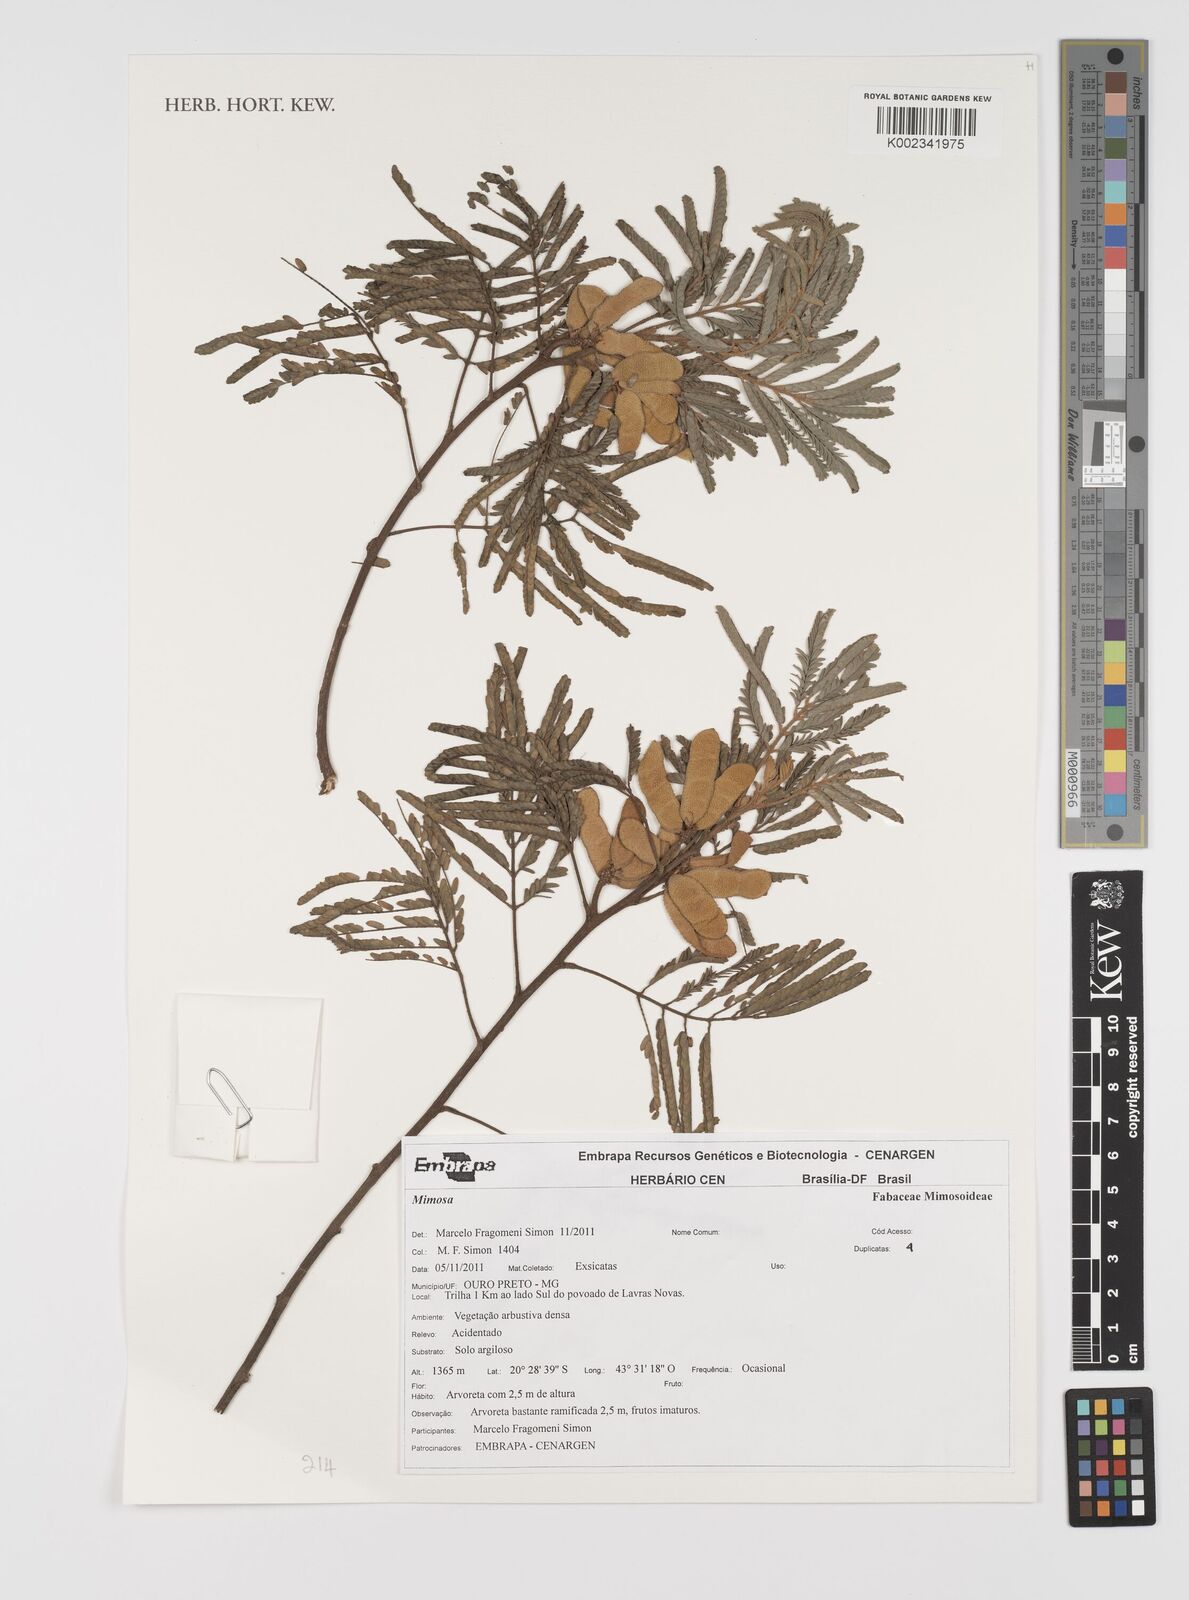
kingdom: Plantae
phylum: Tracheophyta
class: Magnoliopsida
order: Fabales
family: Fabaceae
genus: Mimosa
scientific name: Mimosa
